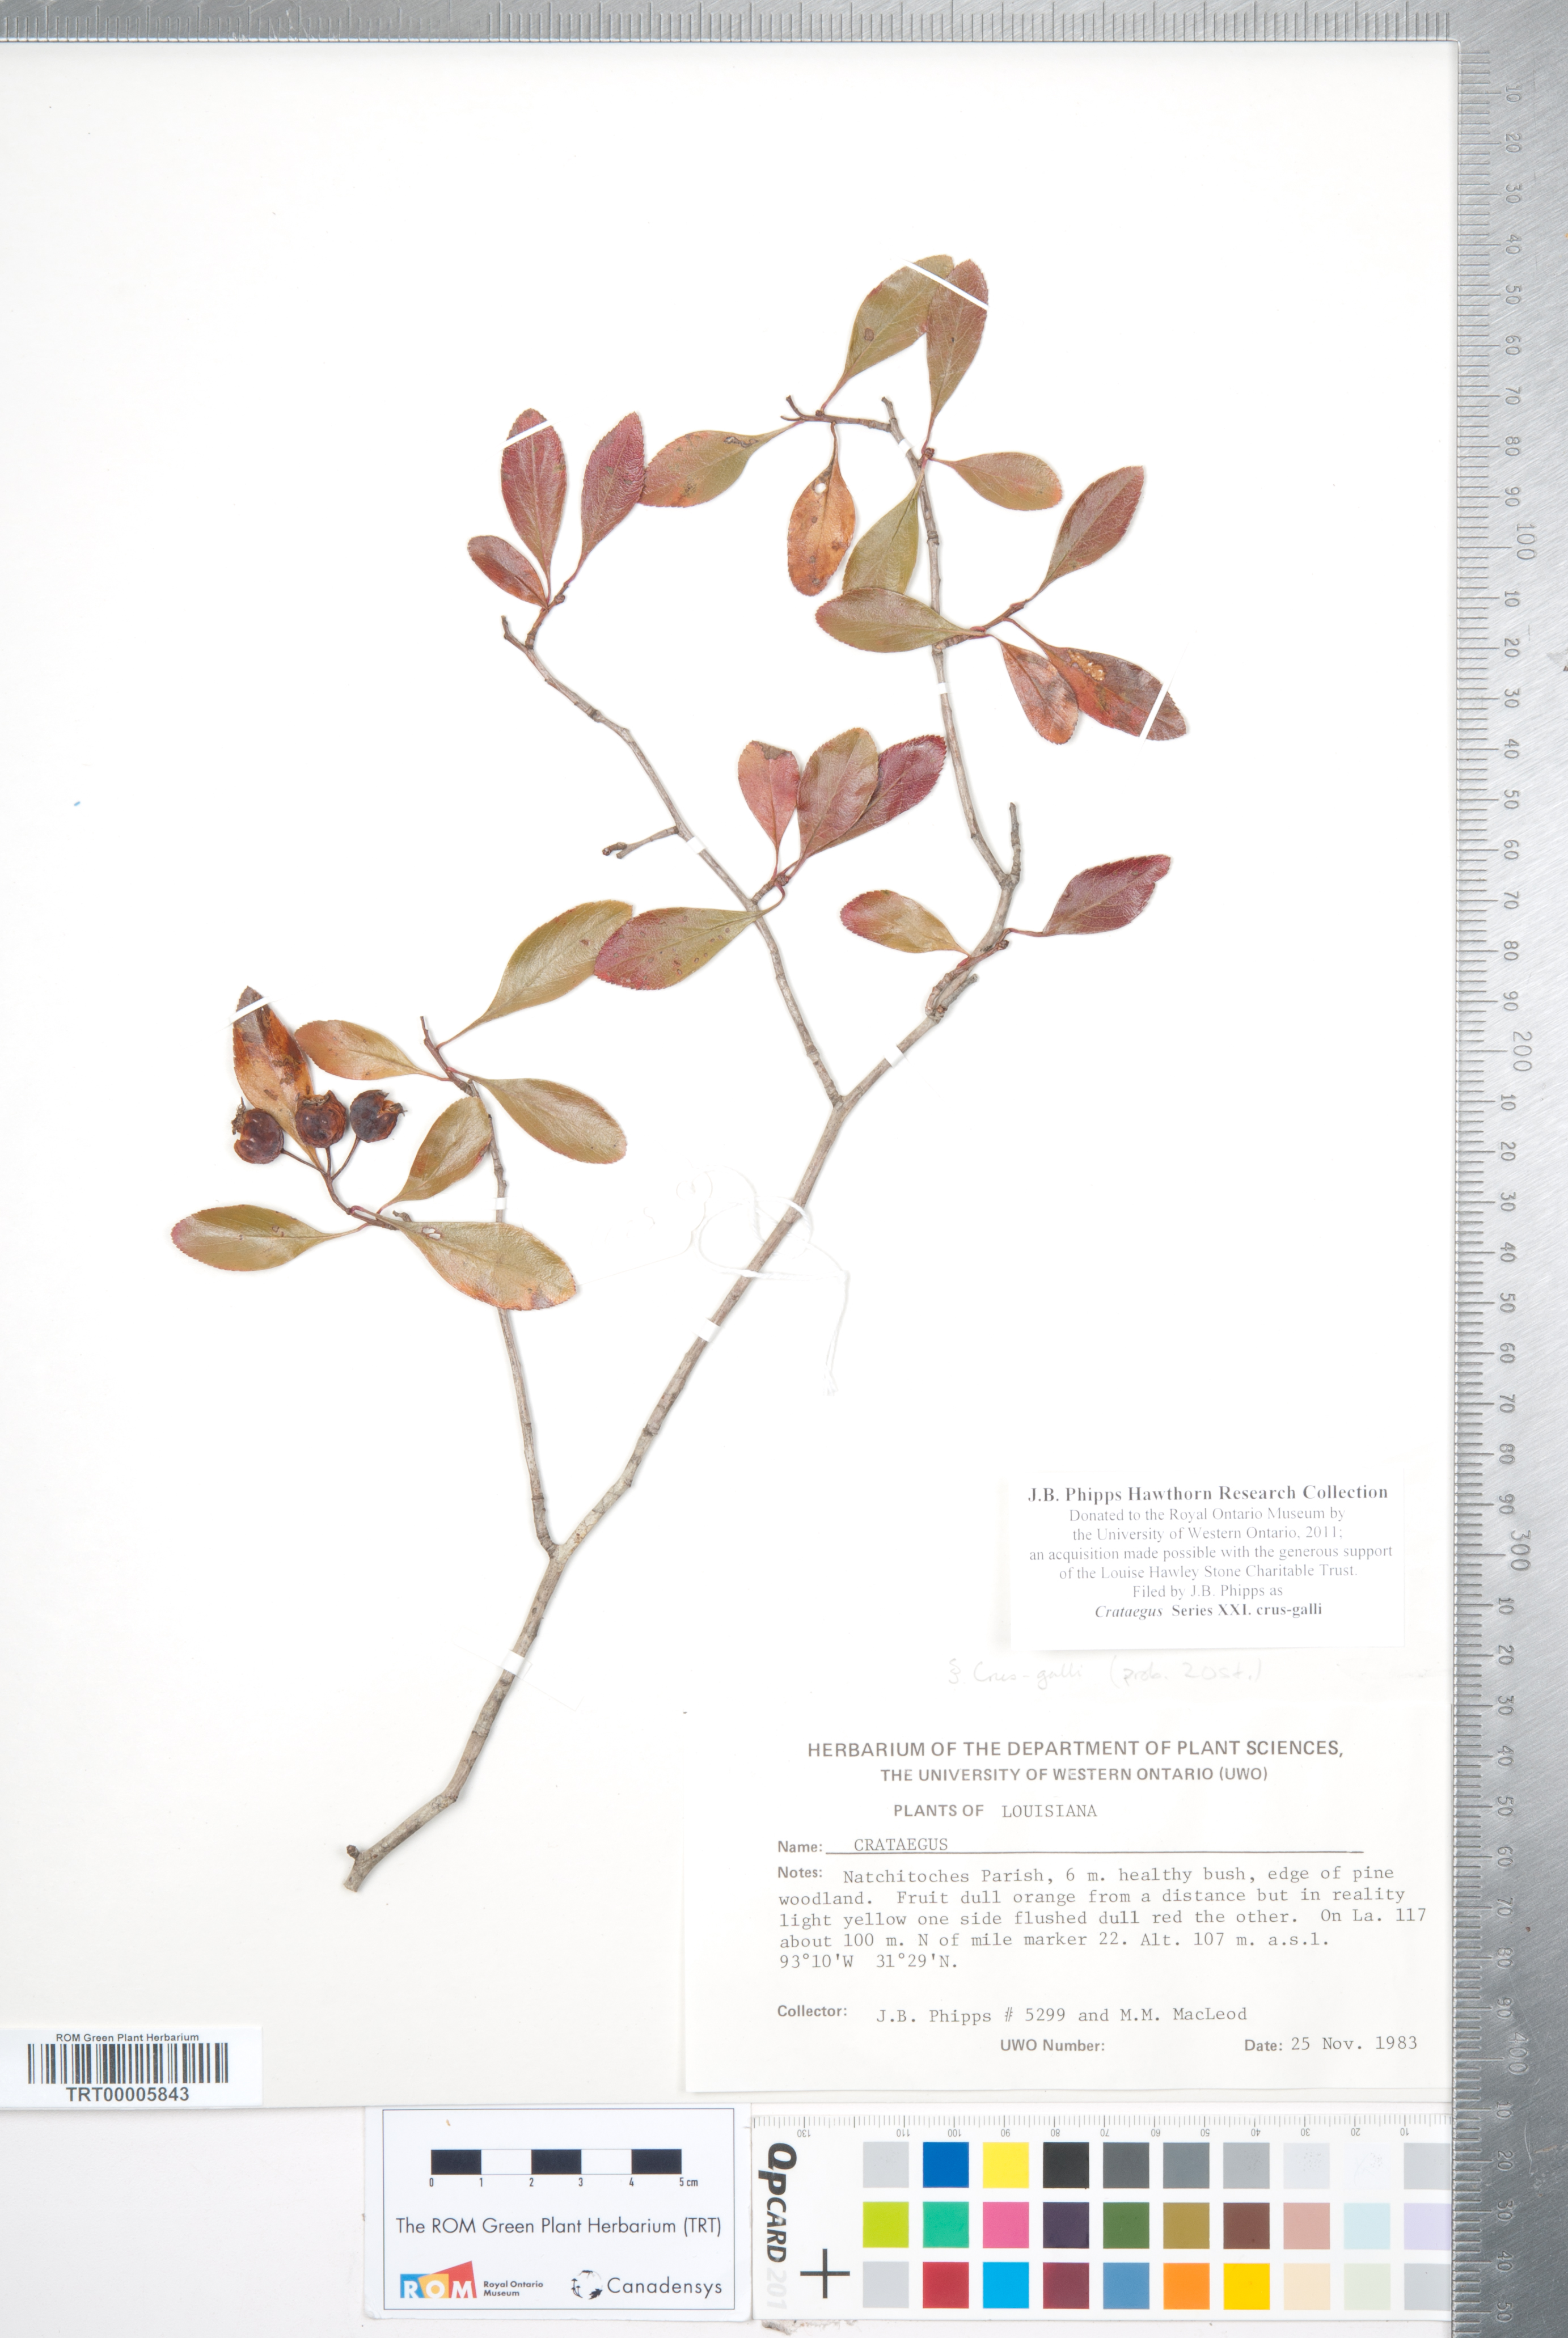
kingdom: Plantae
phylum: Tracheophyta
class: Magnoliopsida
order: Rosales
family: Rosaceae
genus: Crataegus
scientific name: Crataegus
